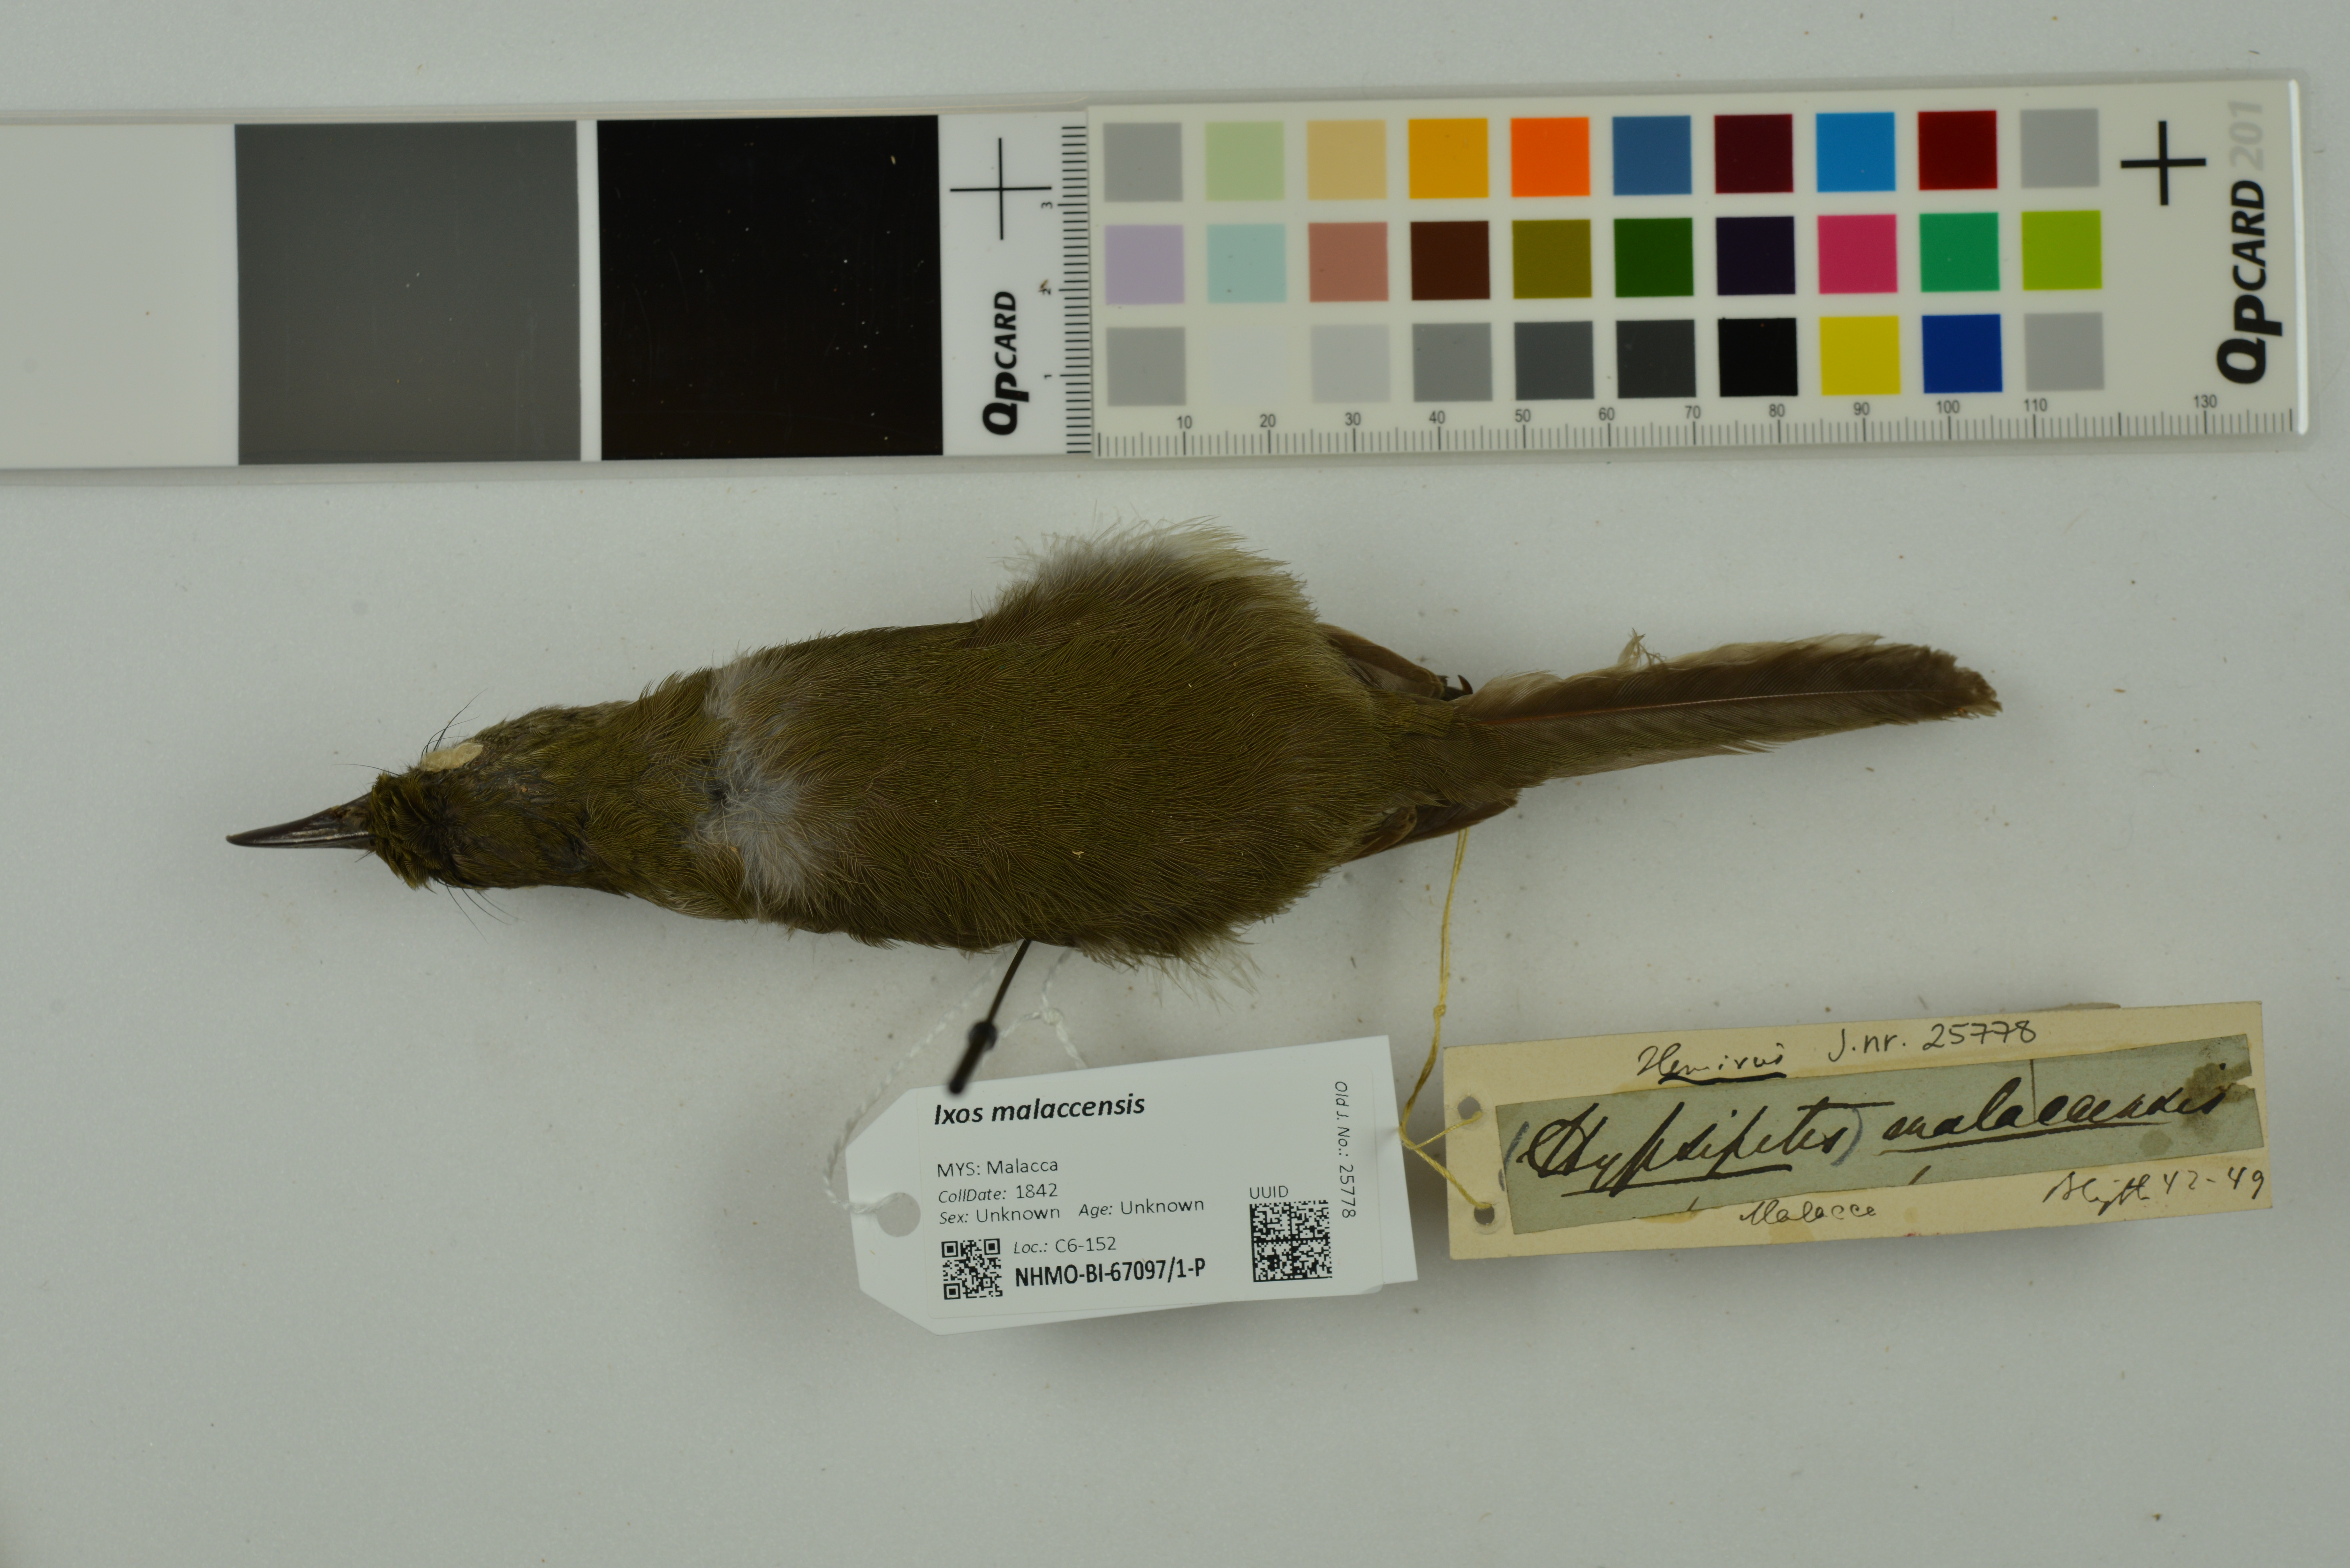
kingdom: Animalia
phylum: Chordata
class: Aves
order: Passeriformes
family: Pycnonotidae
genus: Ixos
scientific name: Ixos malaccensis
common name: Streaked bulbul
